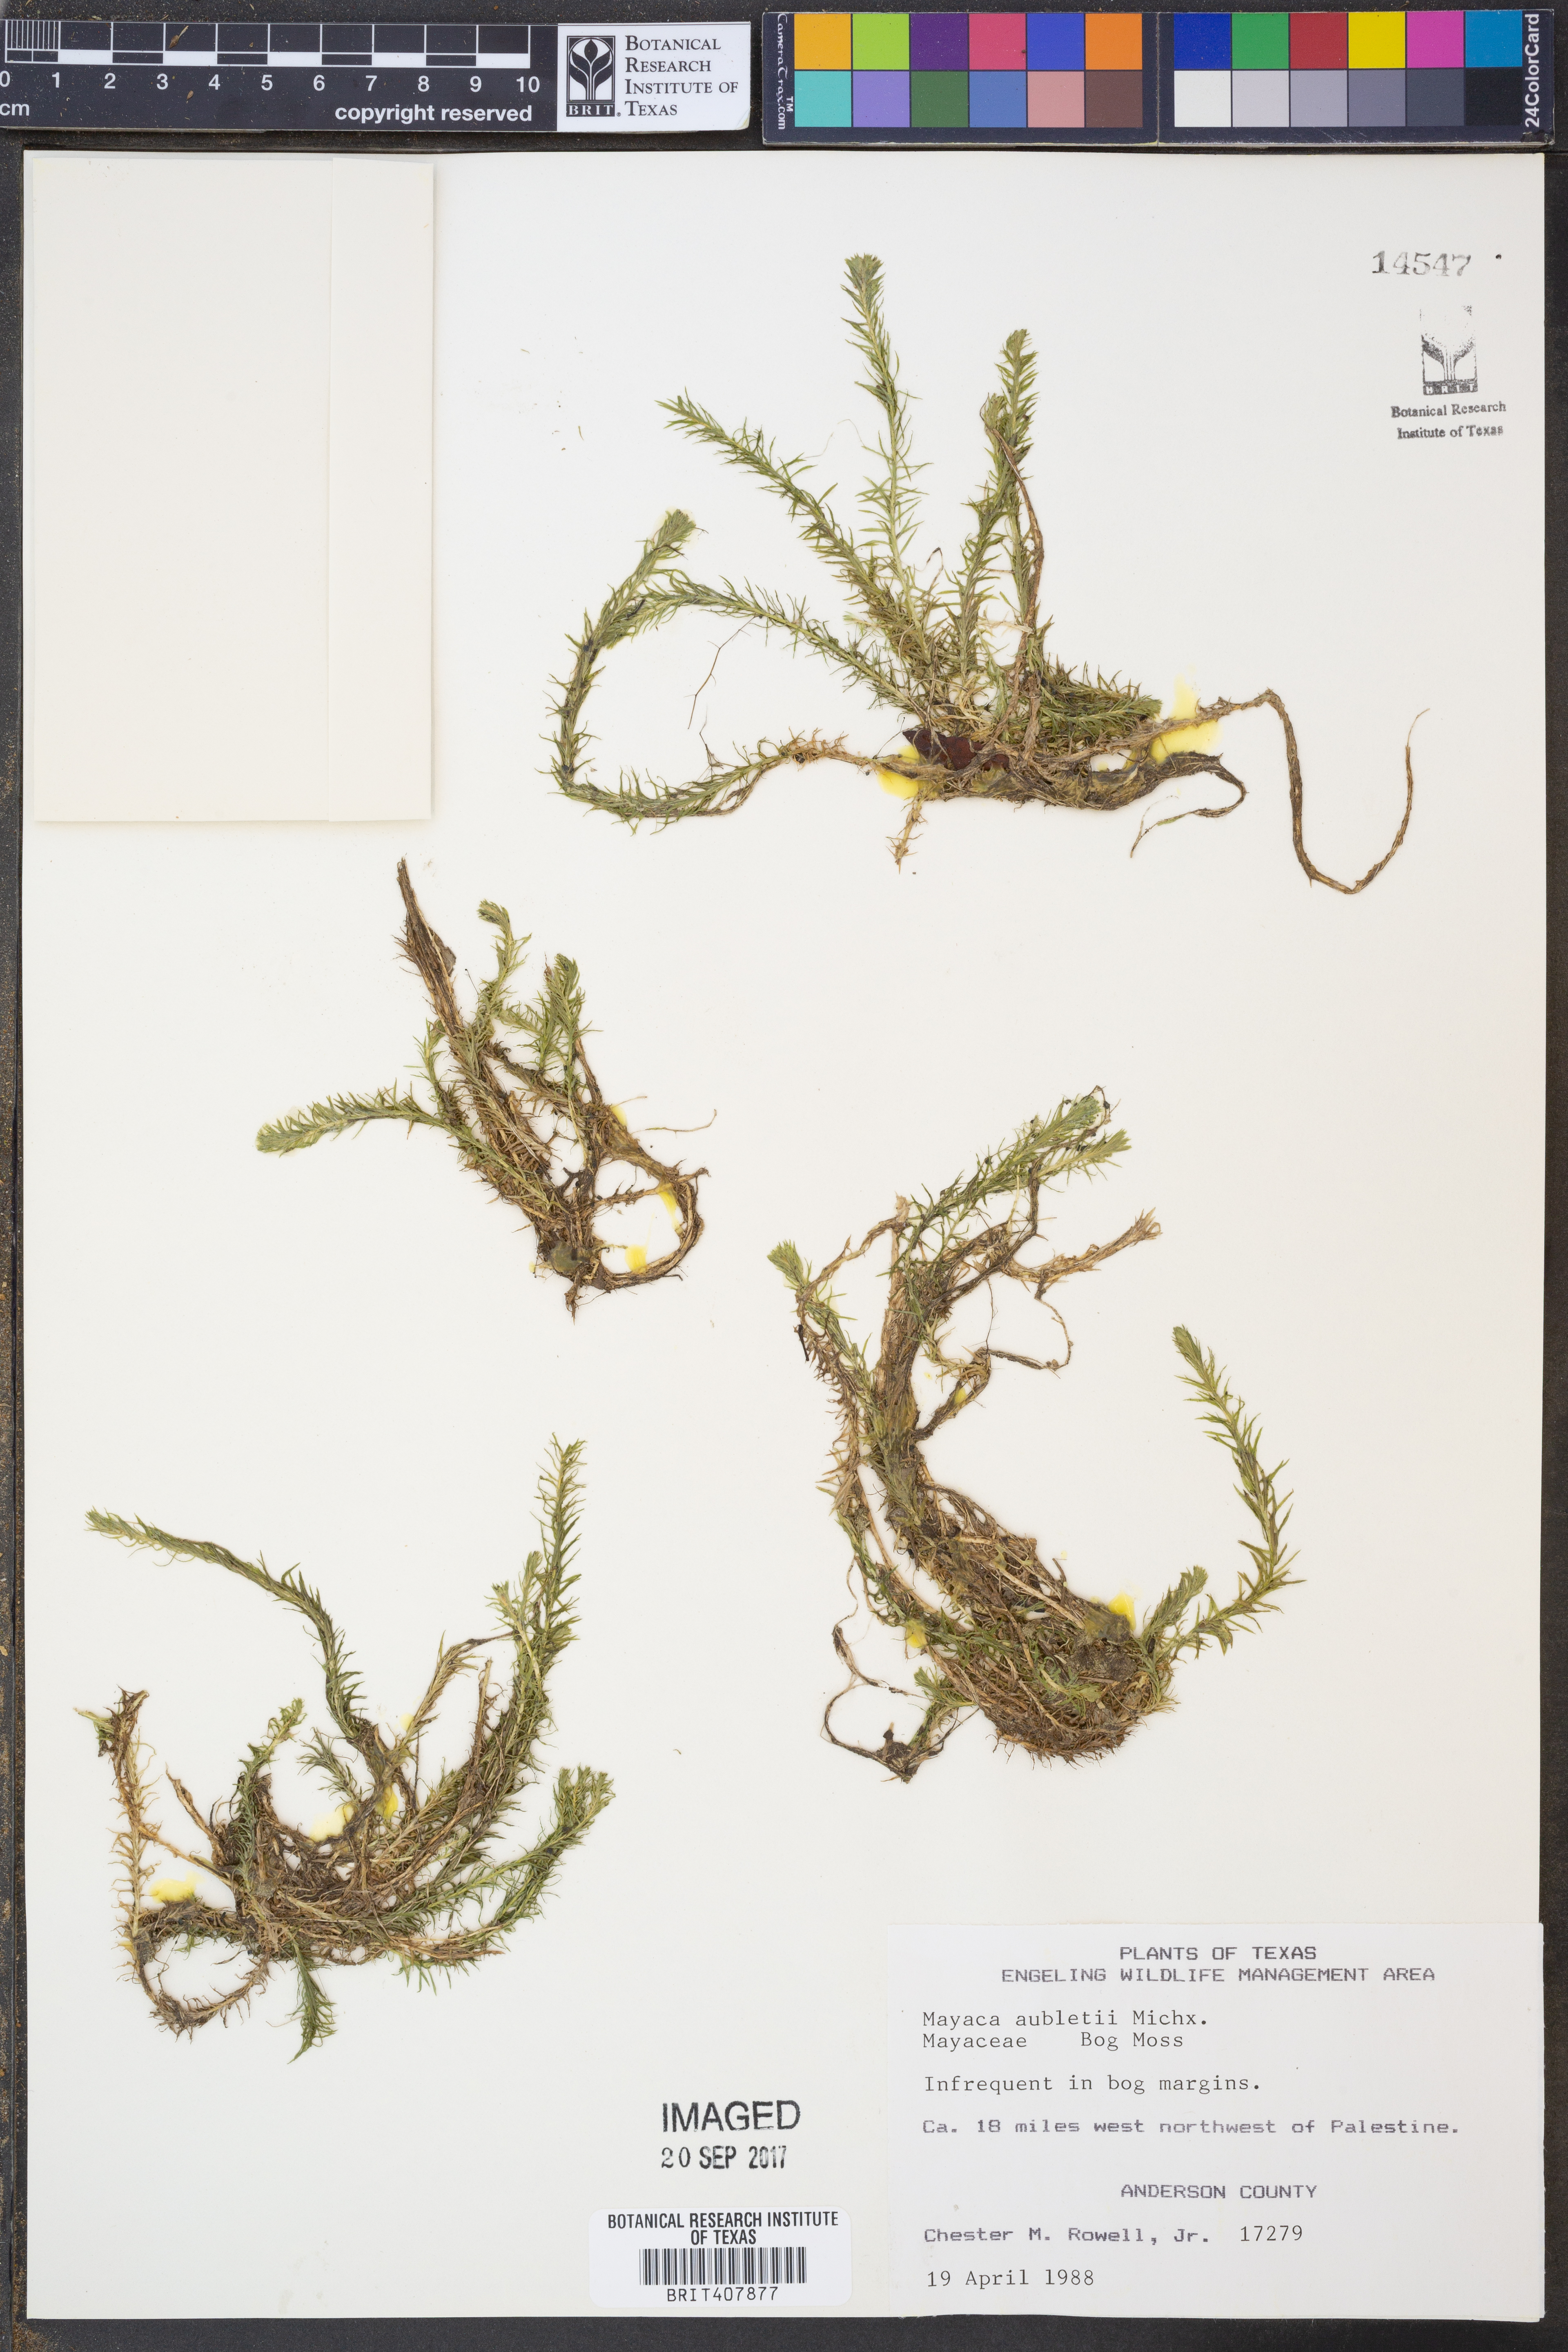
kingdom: Plantae
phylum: Tracheophyta
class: Liliopsida
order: Poales
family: Mayacaceae
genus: Mayaca
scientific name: Mayaca fluviatilis
